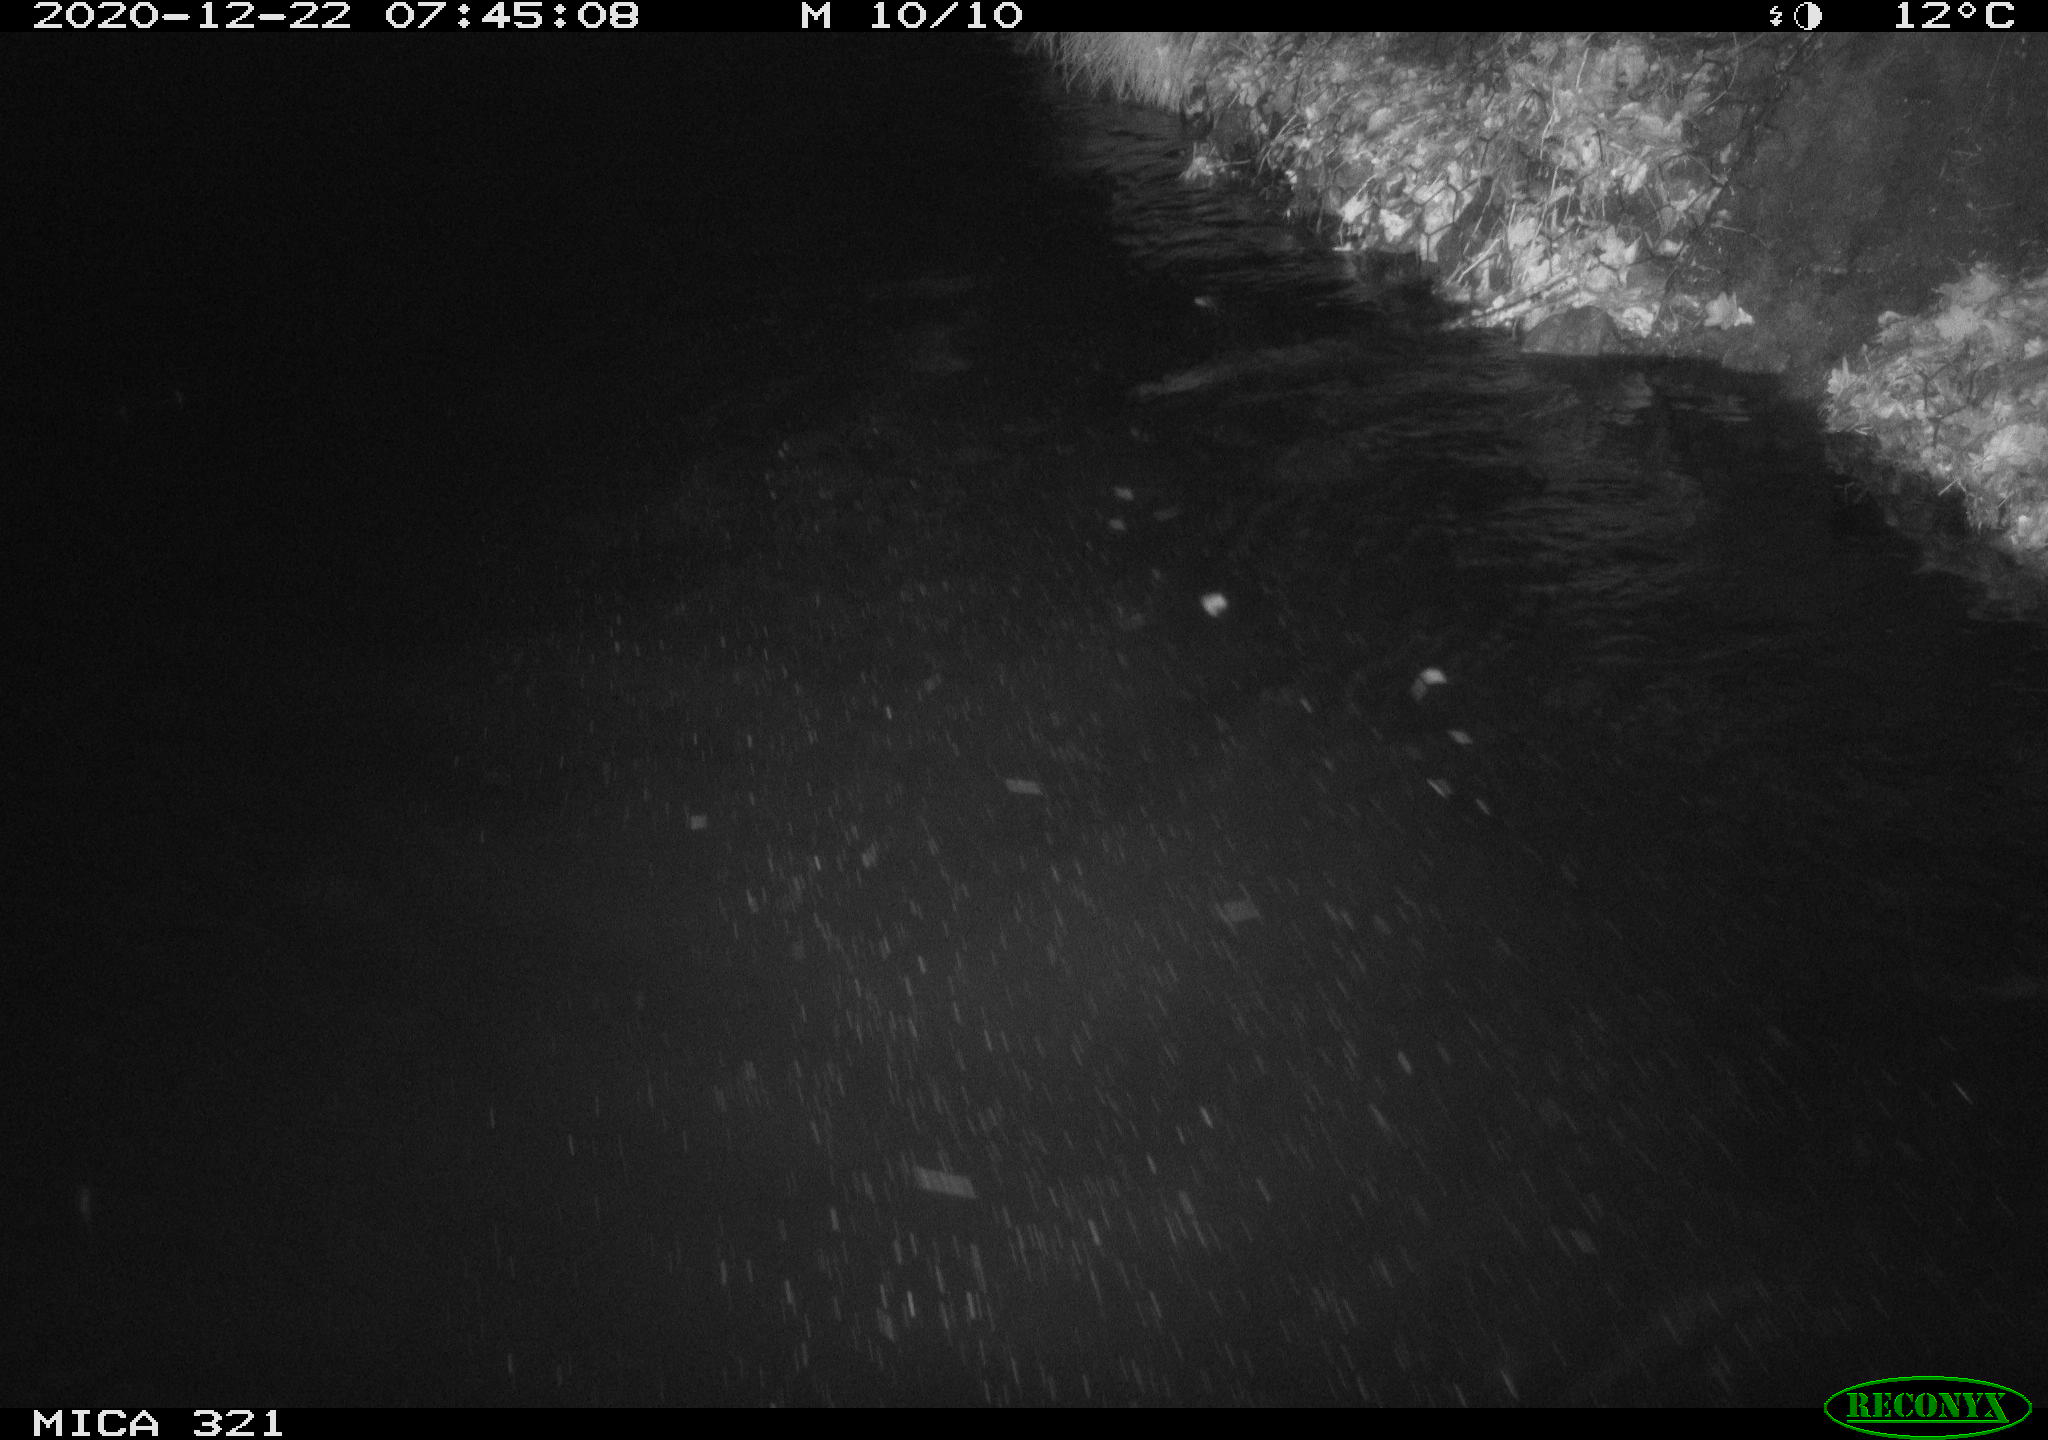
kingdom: Animalia
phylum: Chordata
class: Aves
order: Anseriformes
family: Anatidae
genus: Anas
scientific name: Anas platyrhynchos
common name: Mallard
